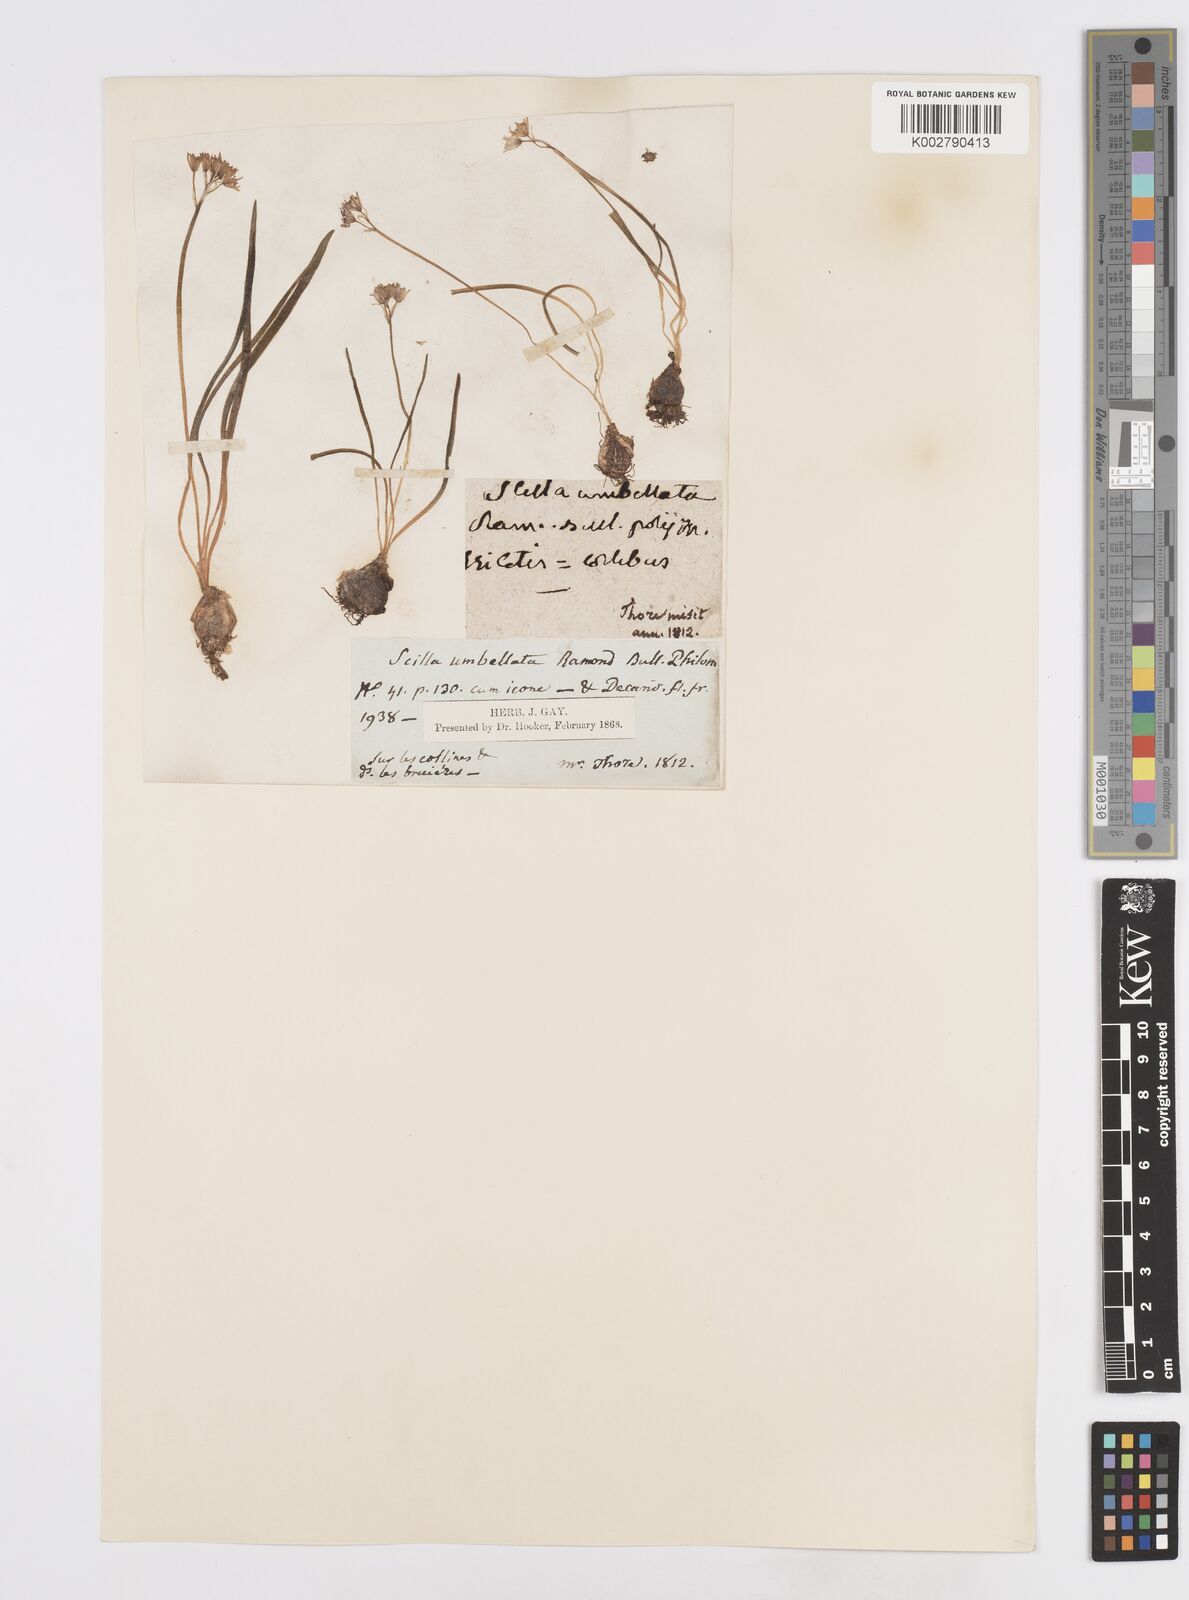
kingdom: Plantae
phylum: Tracheophyta
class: Liliopsida
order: Asparagales
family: Asparagaceae
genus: Scilla
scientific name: Scilla verna
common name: Spring squill
